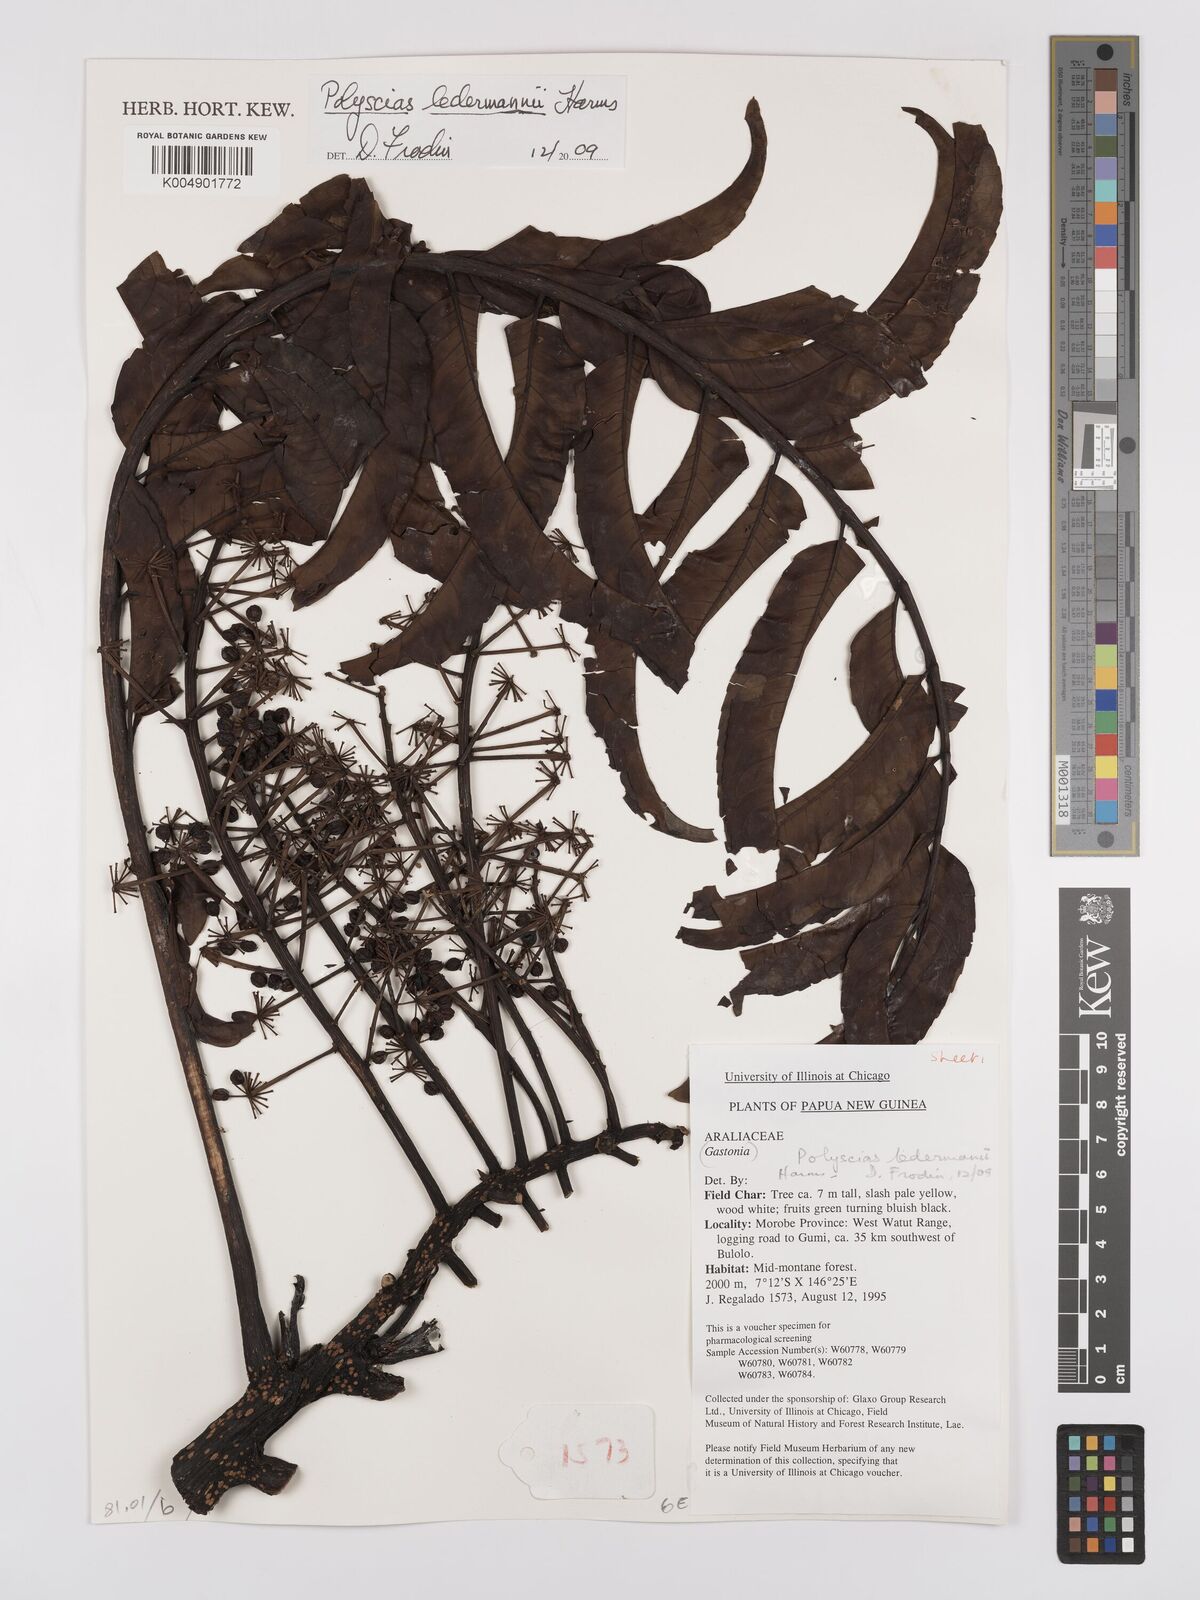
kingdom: Plantae
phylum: Tracheophyta
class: Magnoliopsida
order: Apiales
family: Araliaceae
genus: Polyscias
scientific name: Polyscias ledermannii
